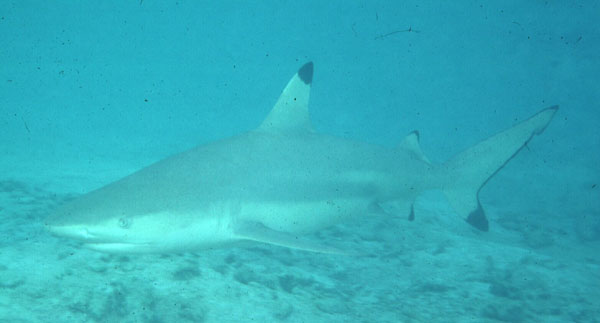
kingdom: Animalia
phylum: Chordata
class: Elasmobranchii
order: Carcharhiniformes
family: Carcharhinidae
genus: Carcharhinus
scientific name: Carcharhinus melanopterus
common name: Blacktip reef shark
